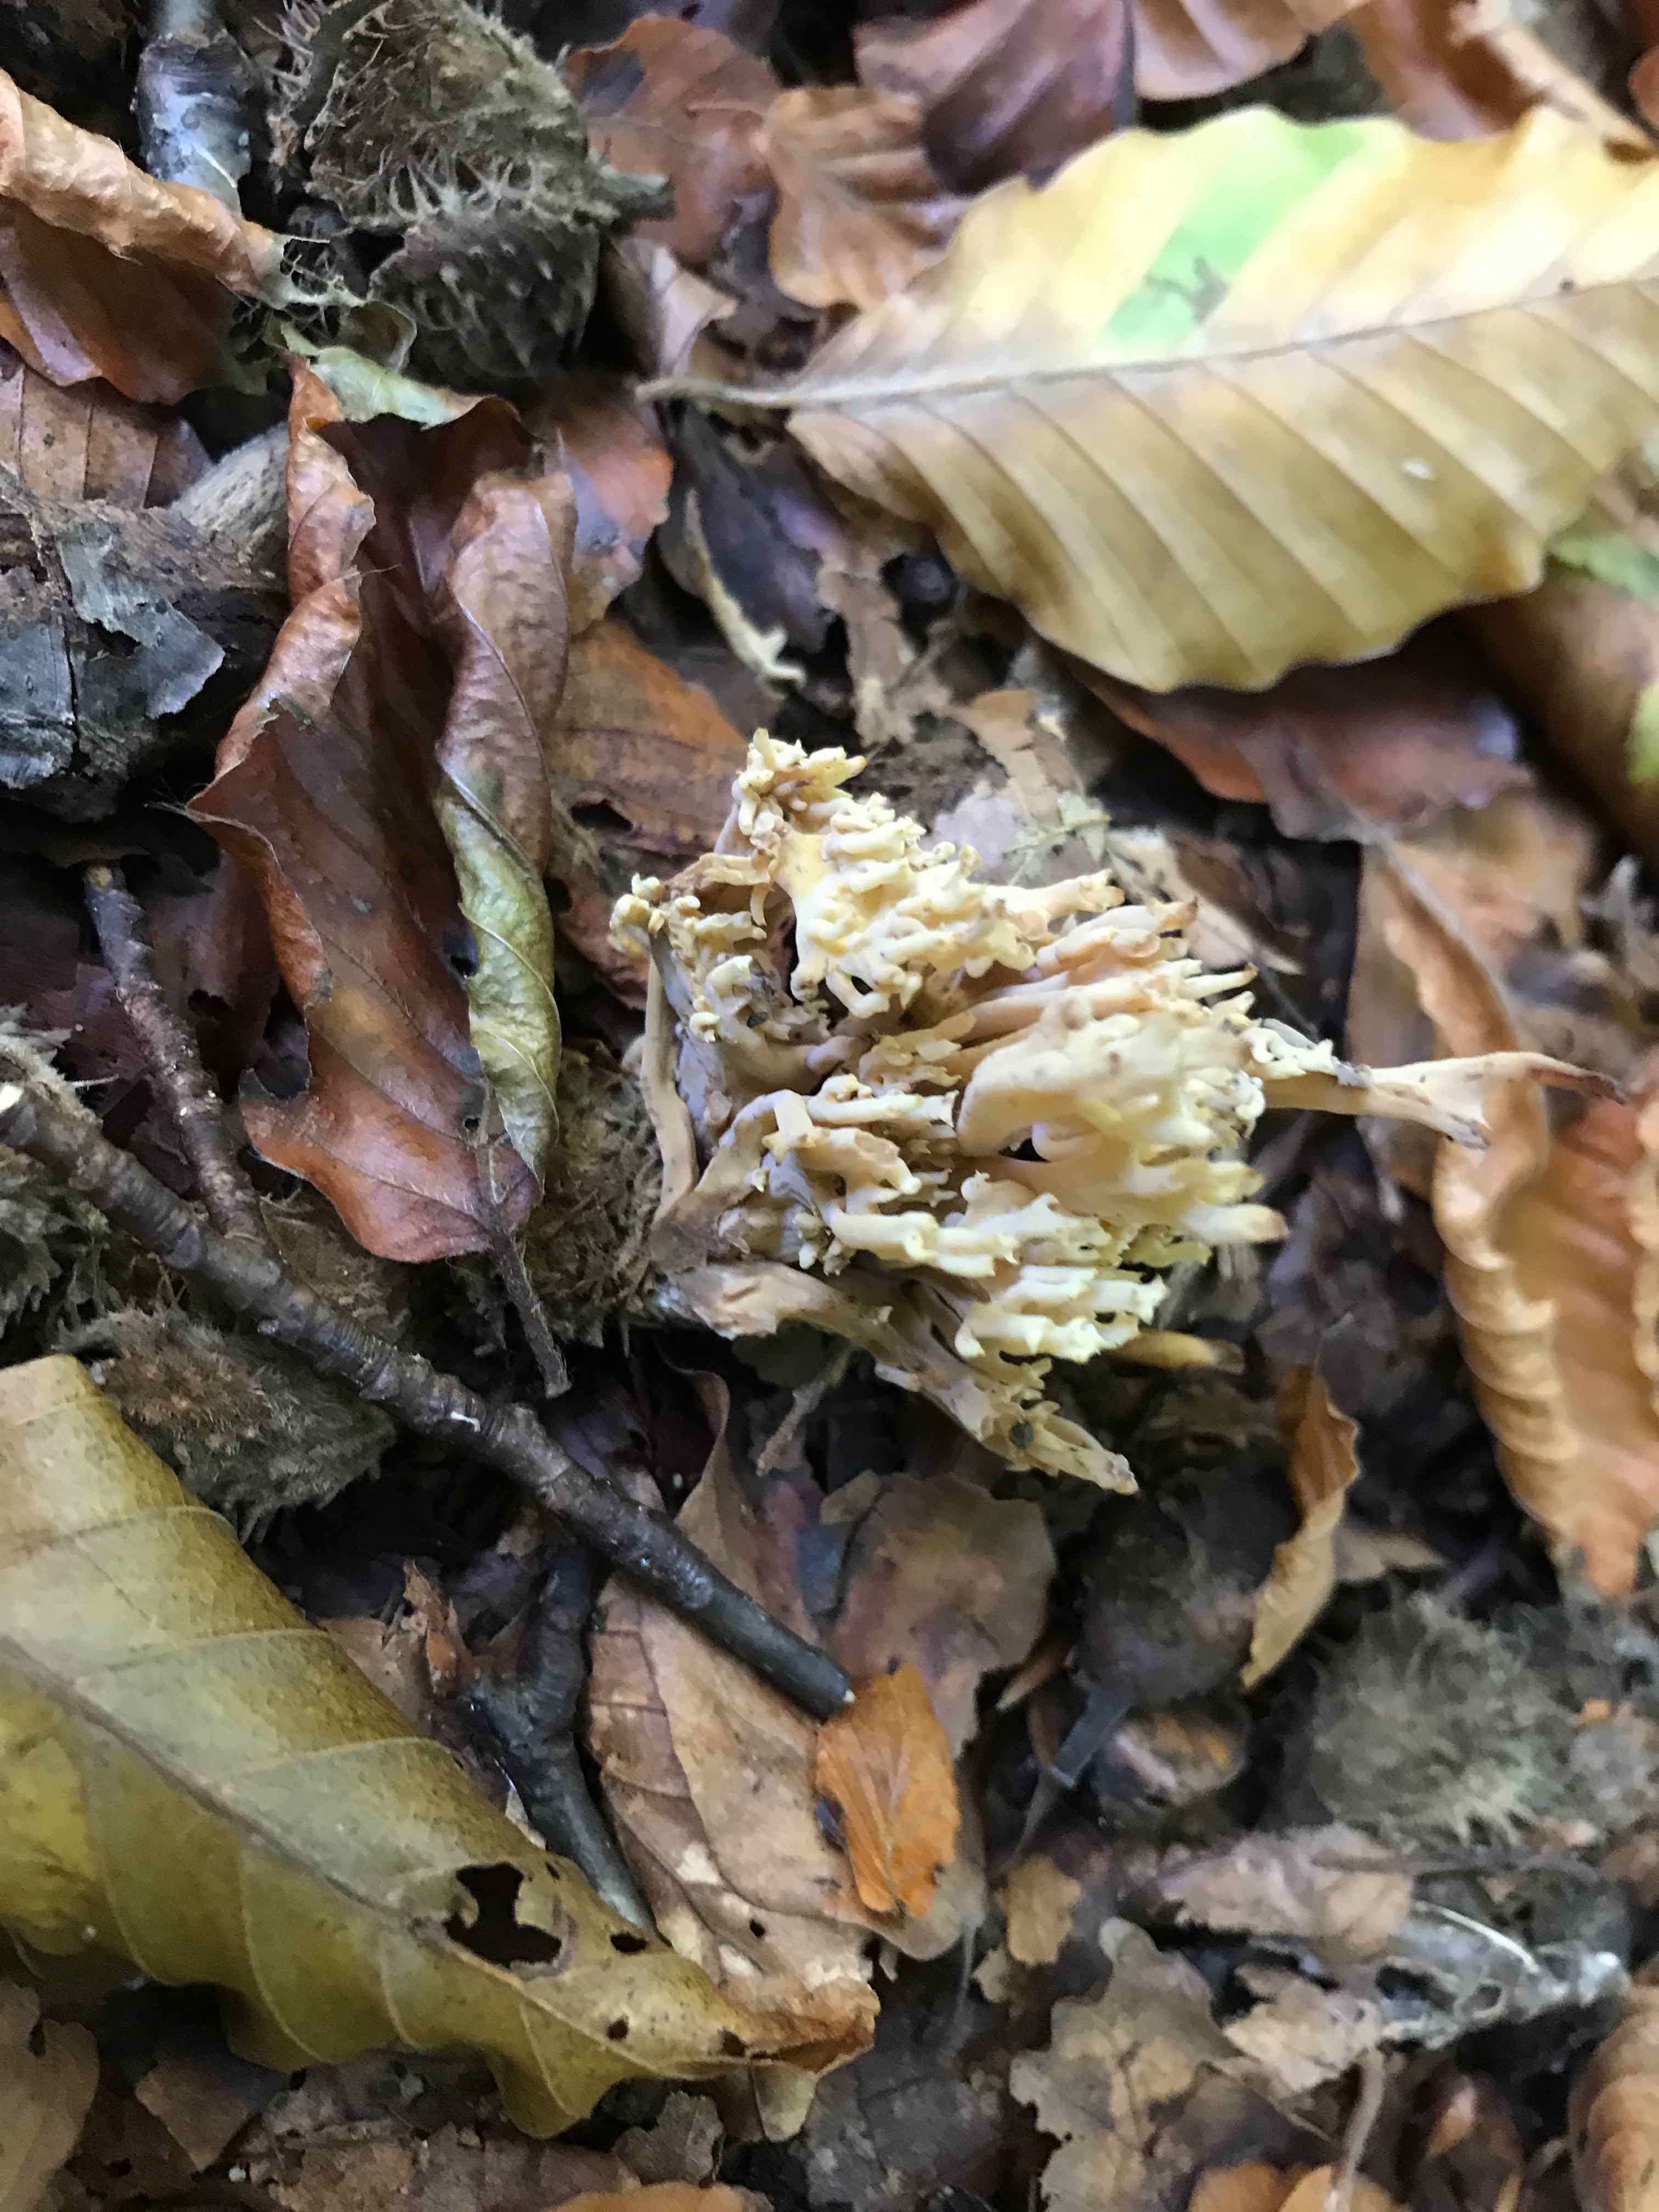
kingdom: Fungi
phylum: Basidiomycota
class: Agaricomycetes
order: Gomphales
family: Gomphaceae
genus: Ramaria
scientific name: Ramaria stricta
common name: rank koralsvamp
